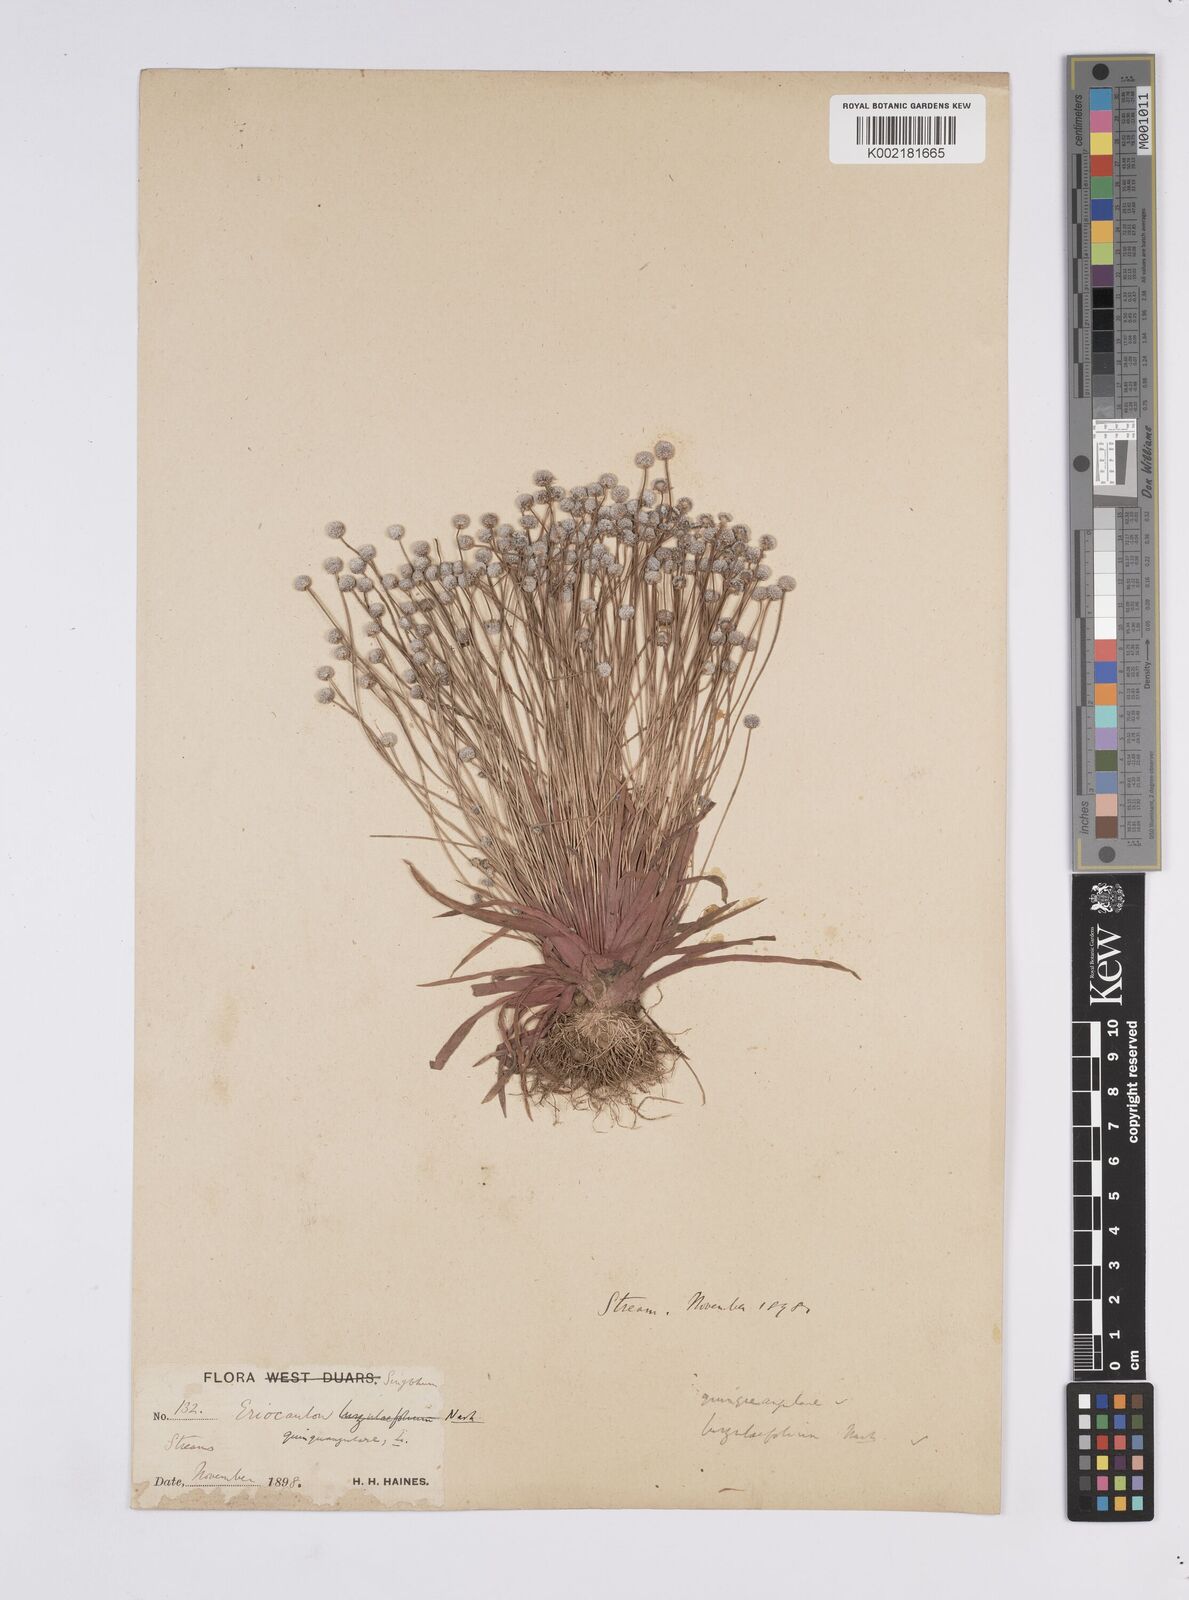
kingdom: Plantae
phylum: Tracheophyta
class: Liliopsida
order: Poales
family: Eriocaulaceae
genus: Eriocaulon
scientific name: Eriocaulon quinquangulare
